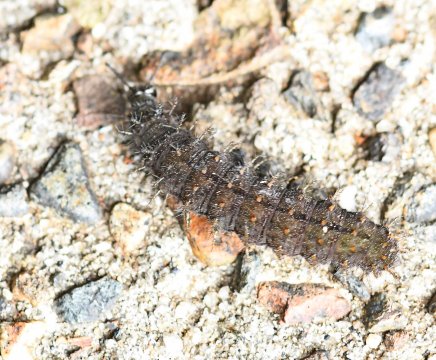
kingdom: Animalia
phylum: Arthropoda
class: Insecta
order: Lepidoptera
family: Riodinidae
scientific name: Riodinidae
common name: Metalmarks
